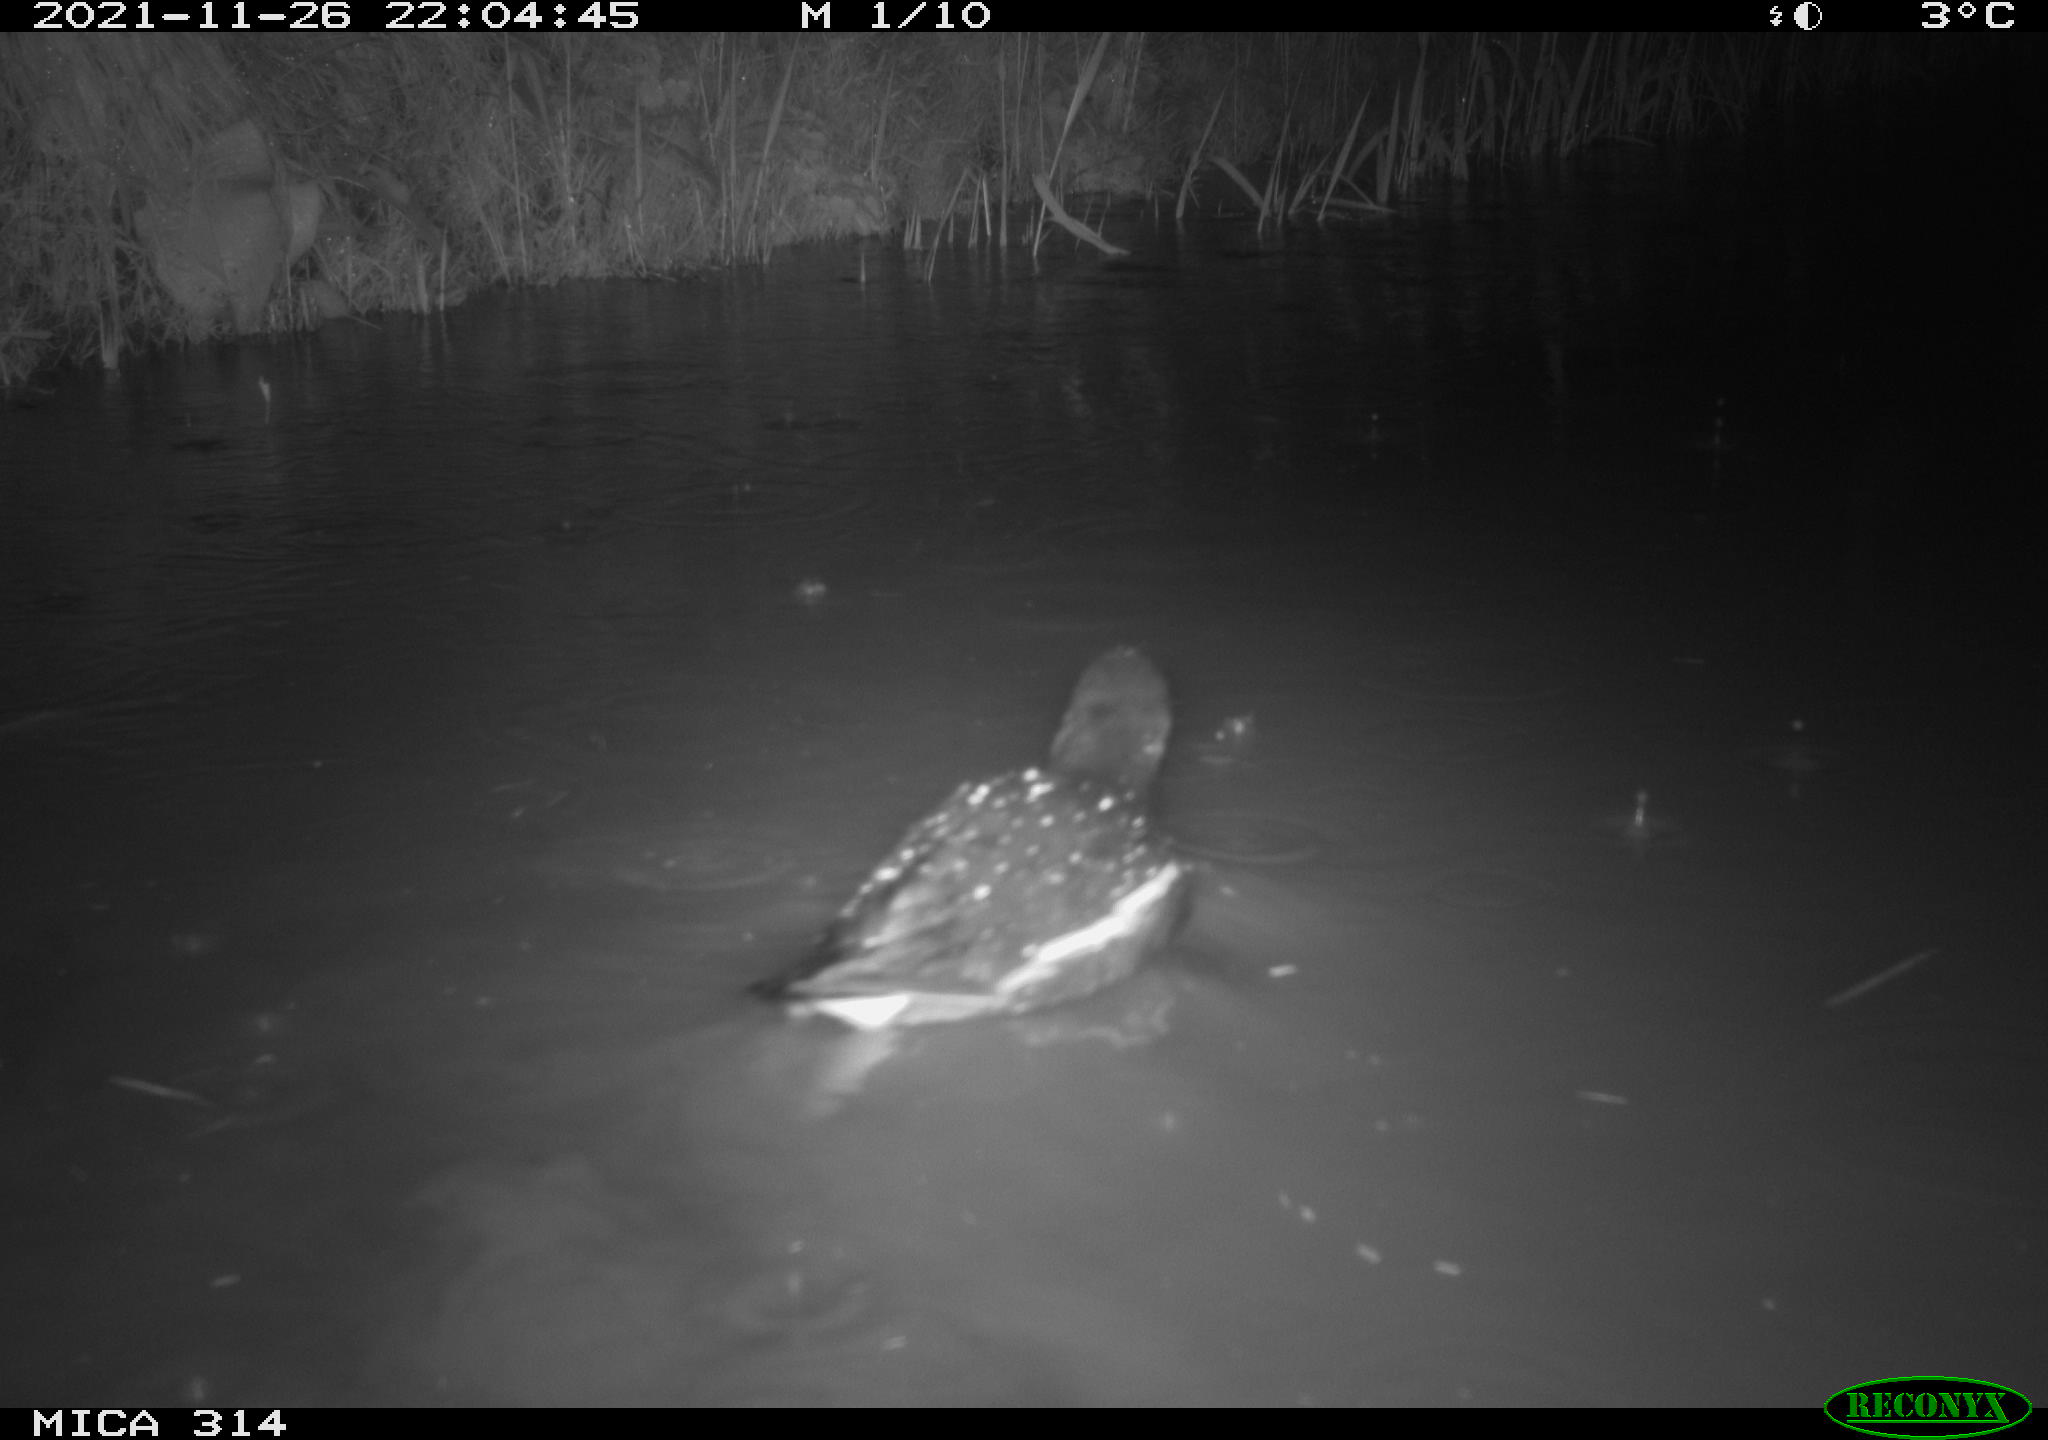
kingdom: Animalia
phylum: Chordata
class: Aves
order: Gruiformes
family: Rallidae
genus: Gallinula
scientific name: Gallinula chloropus
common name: Common moorhen
